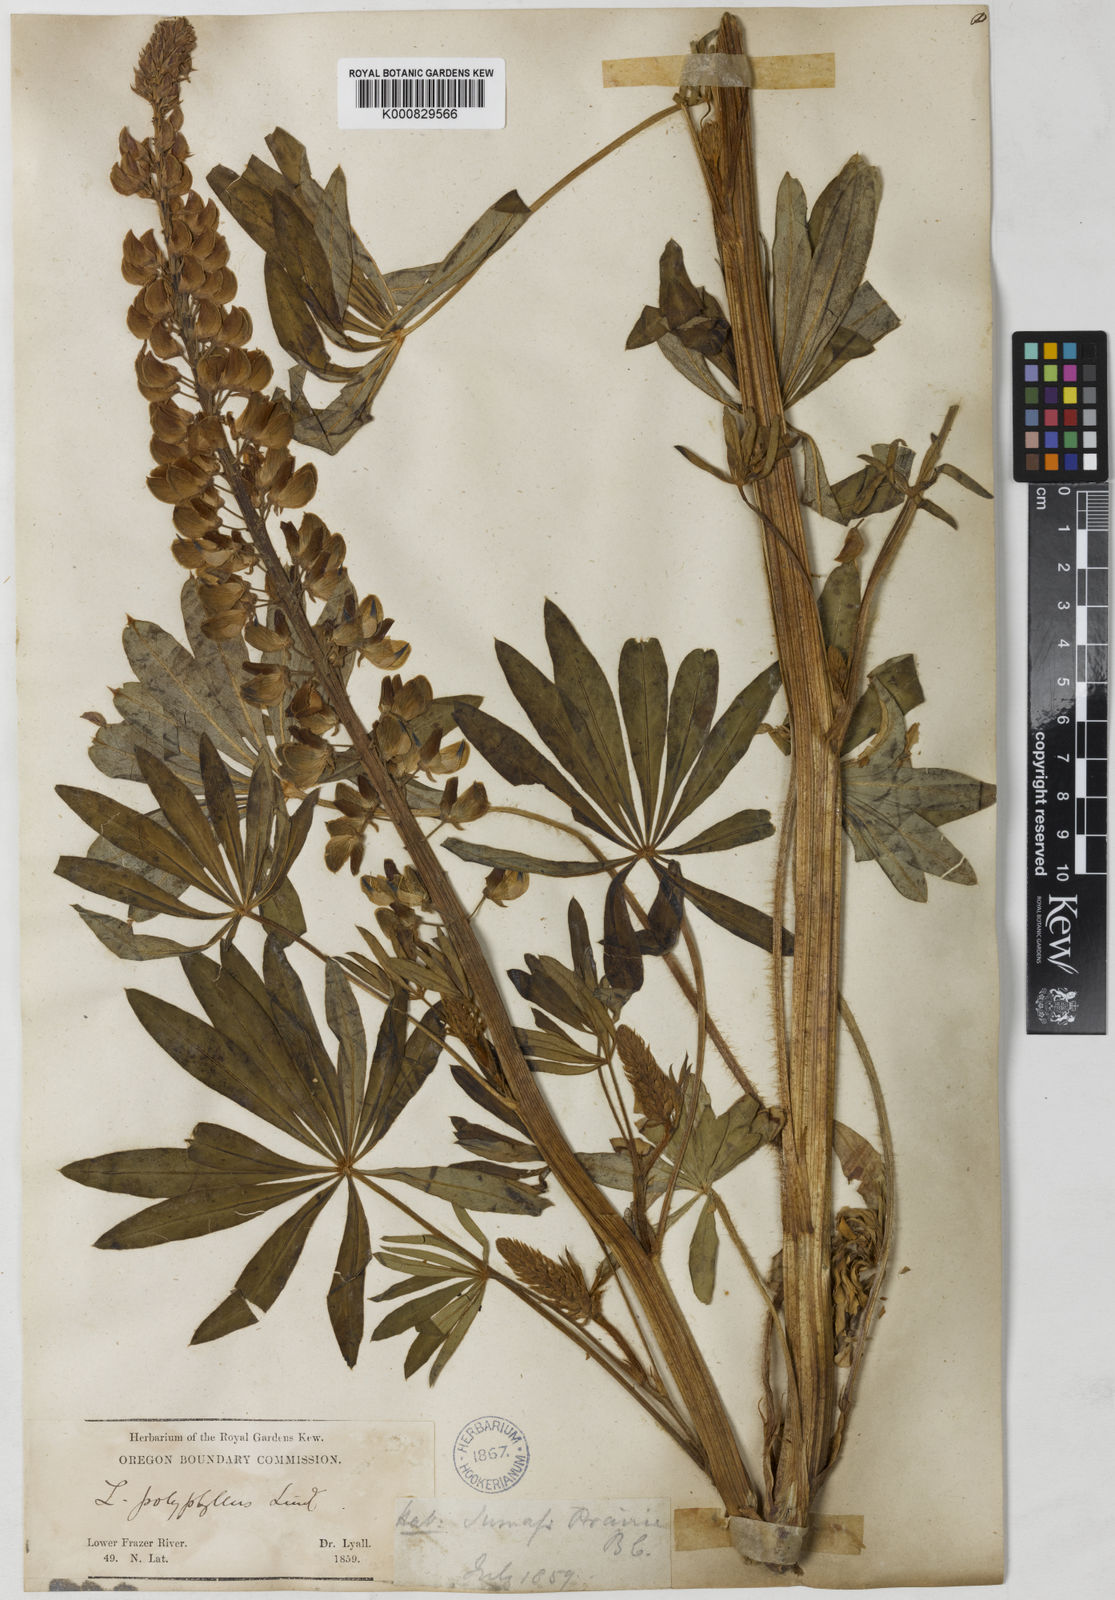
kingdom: Plantae
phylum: Tracheophyta
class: Magnoliopsida
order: Fabales
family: Fabaceae
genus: Lupinus
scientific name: Lupinus polyphyllus
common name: Garden lupin
